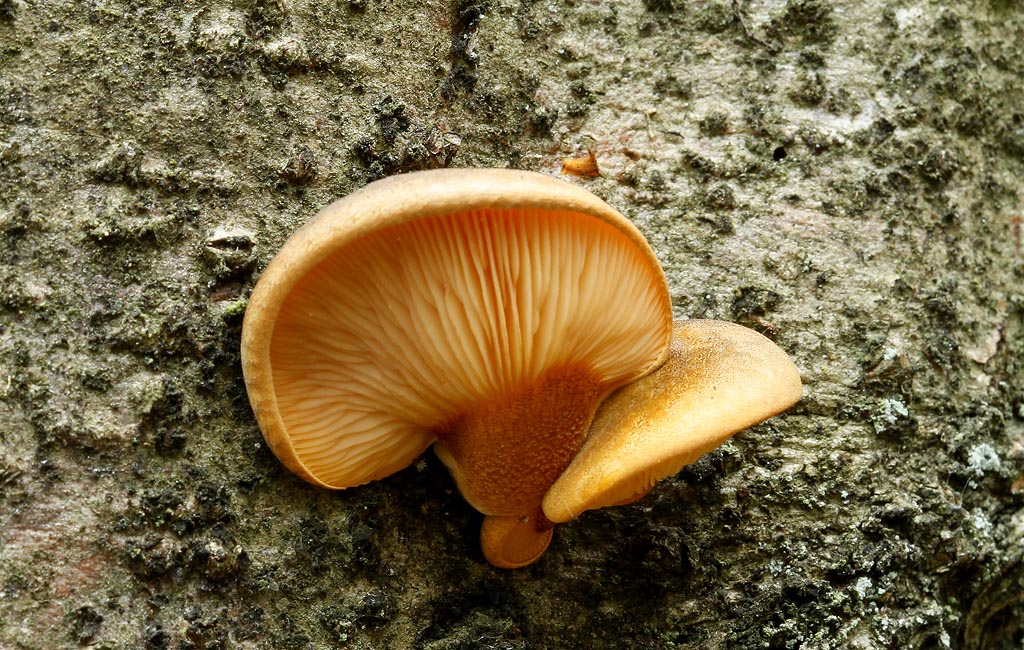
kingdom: Fungi
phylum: Basidiomycota
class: Agaricomycetes
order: Agaricales
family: Sarcomyxaceae
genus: Sarcomyxa
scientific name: Sarcomyxa serotina
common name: gummihat
